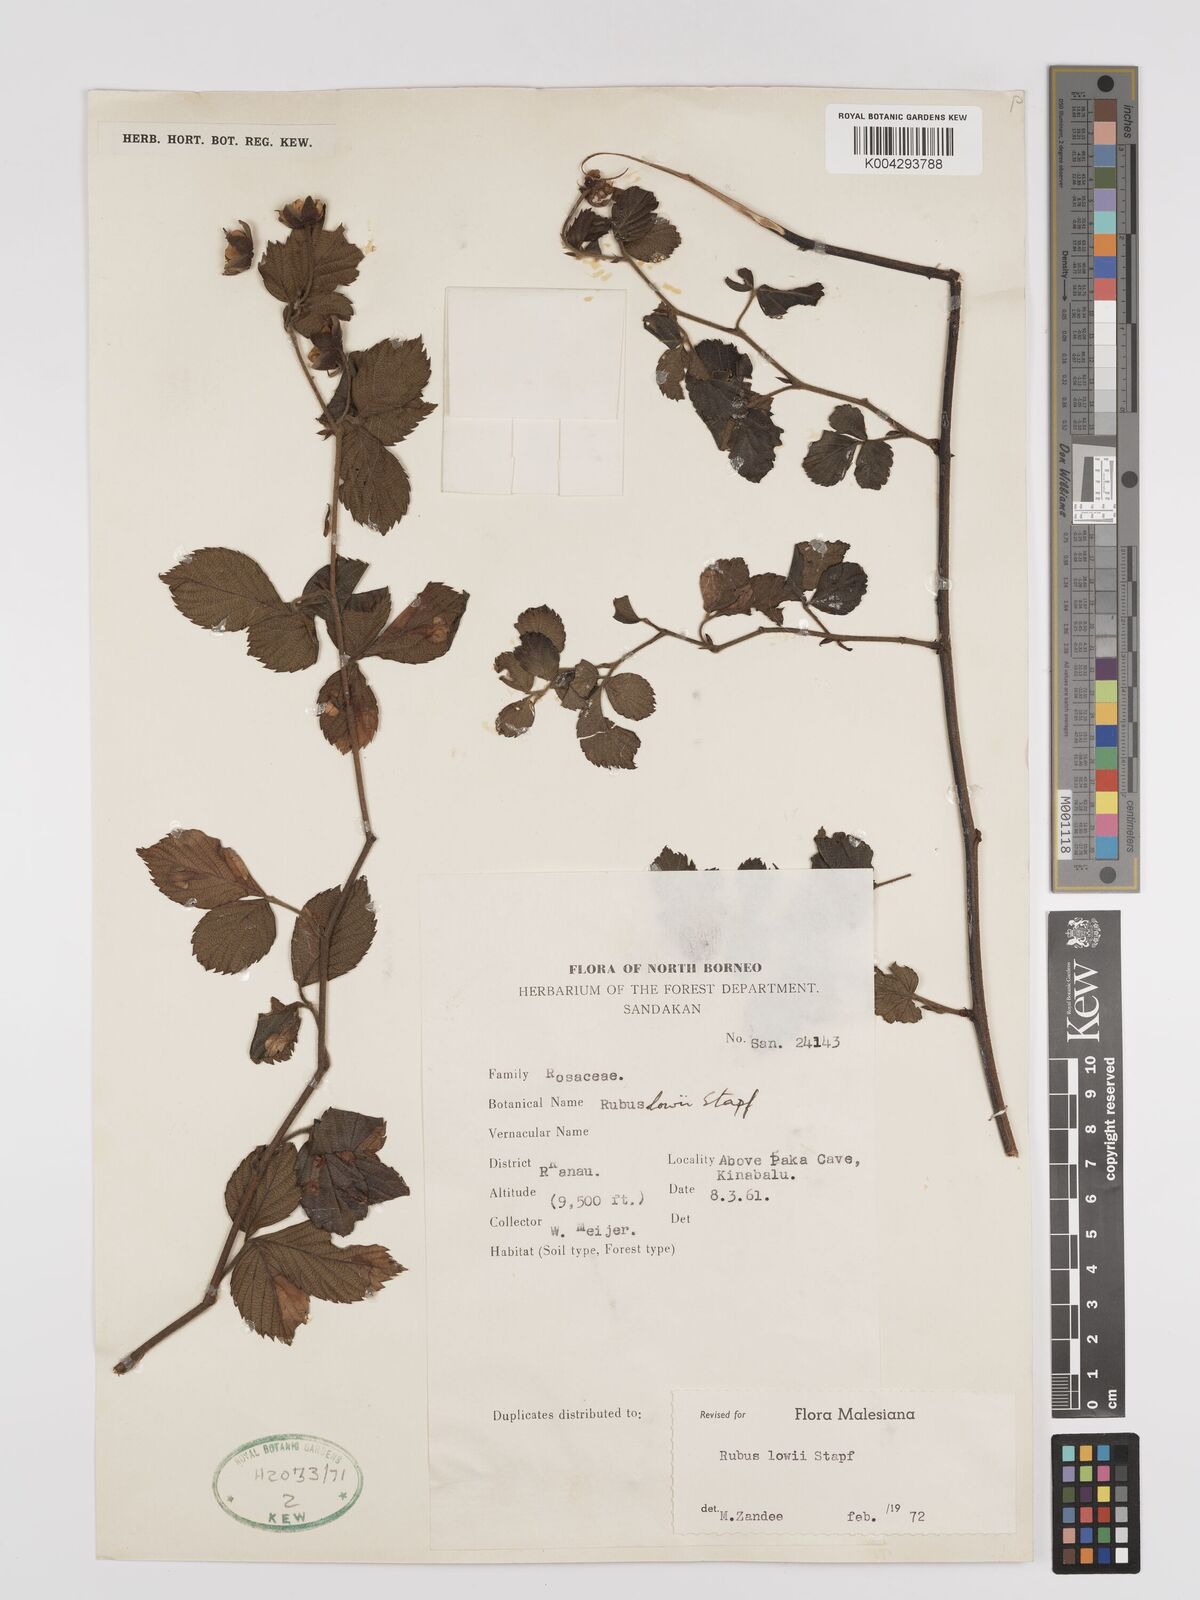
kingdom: Plantae
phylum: Tracheophyta
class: Magnoliopsida
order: Rosales
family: Rosaceae
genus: Rubus
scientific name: Rubus lowii
